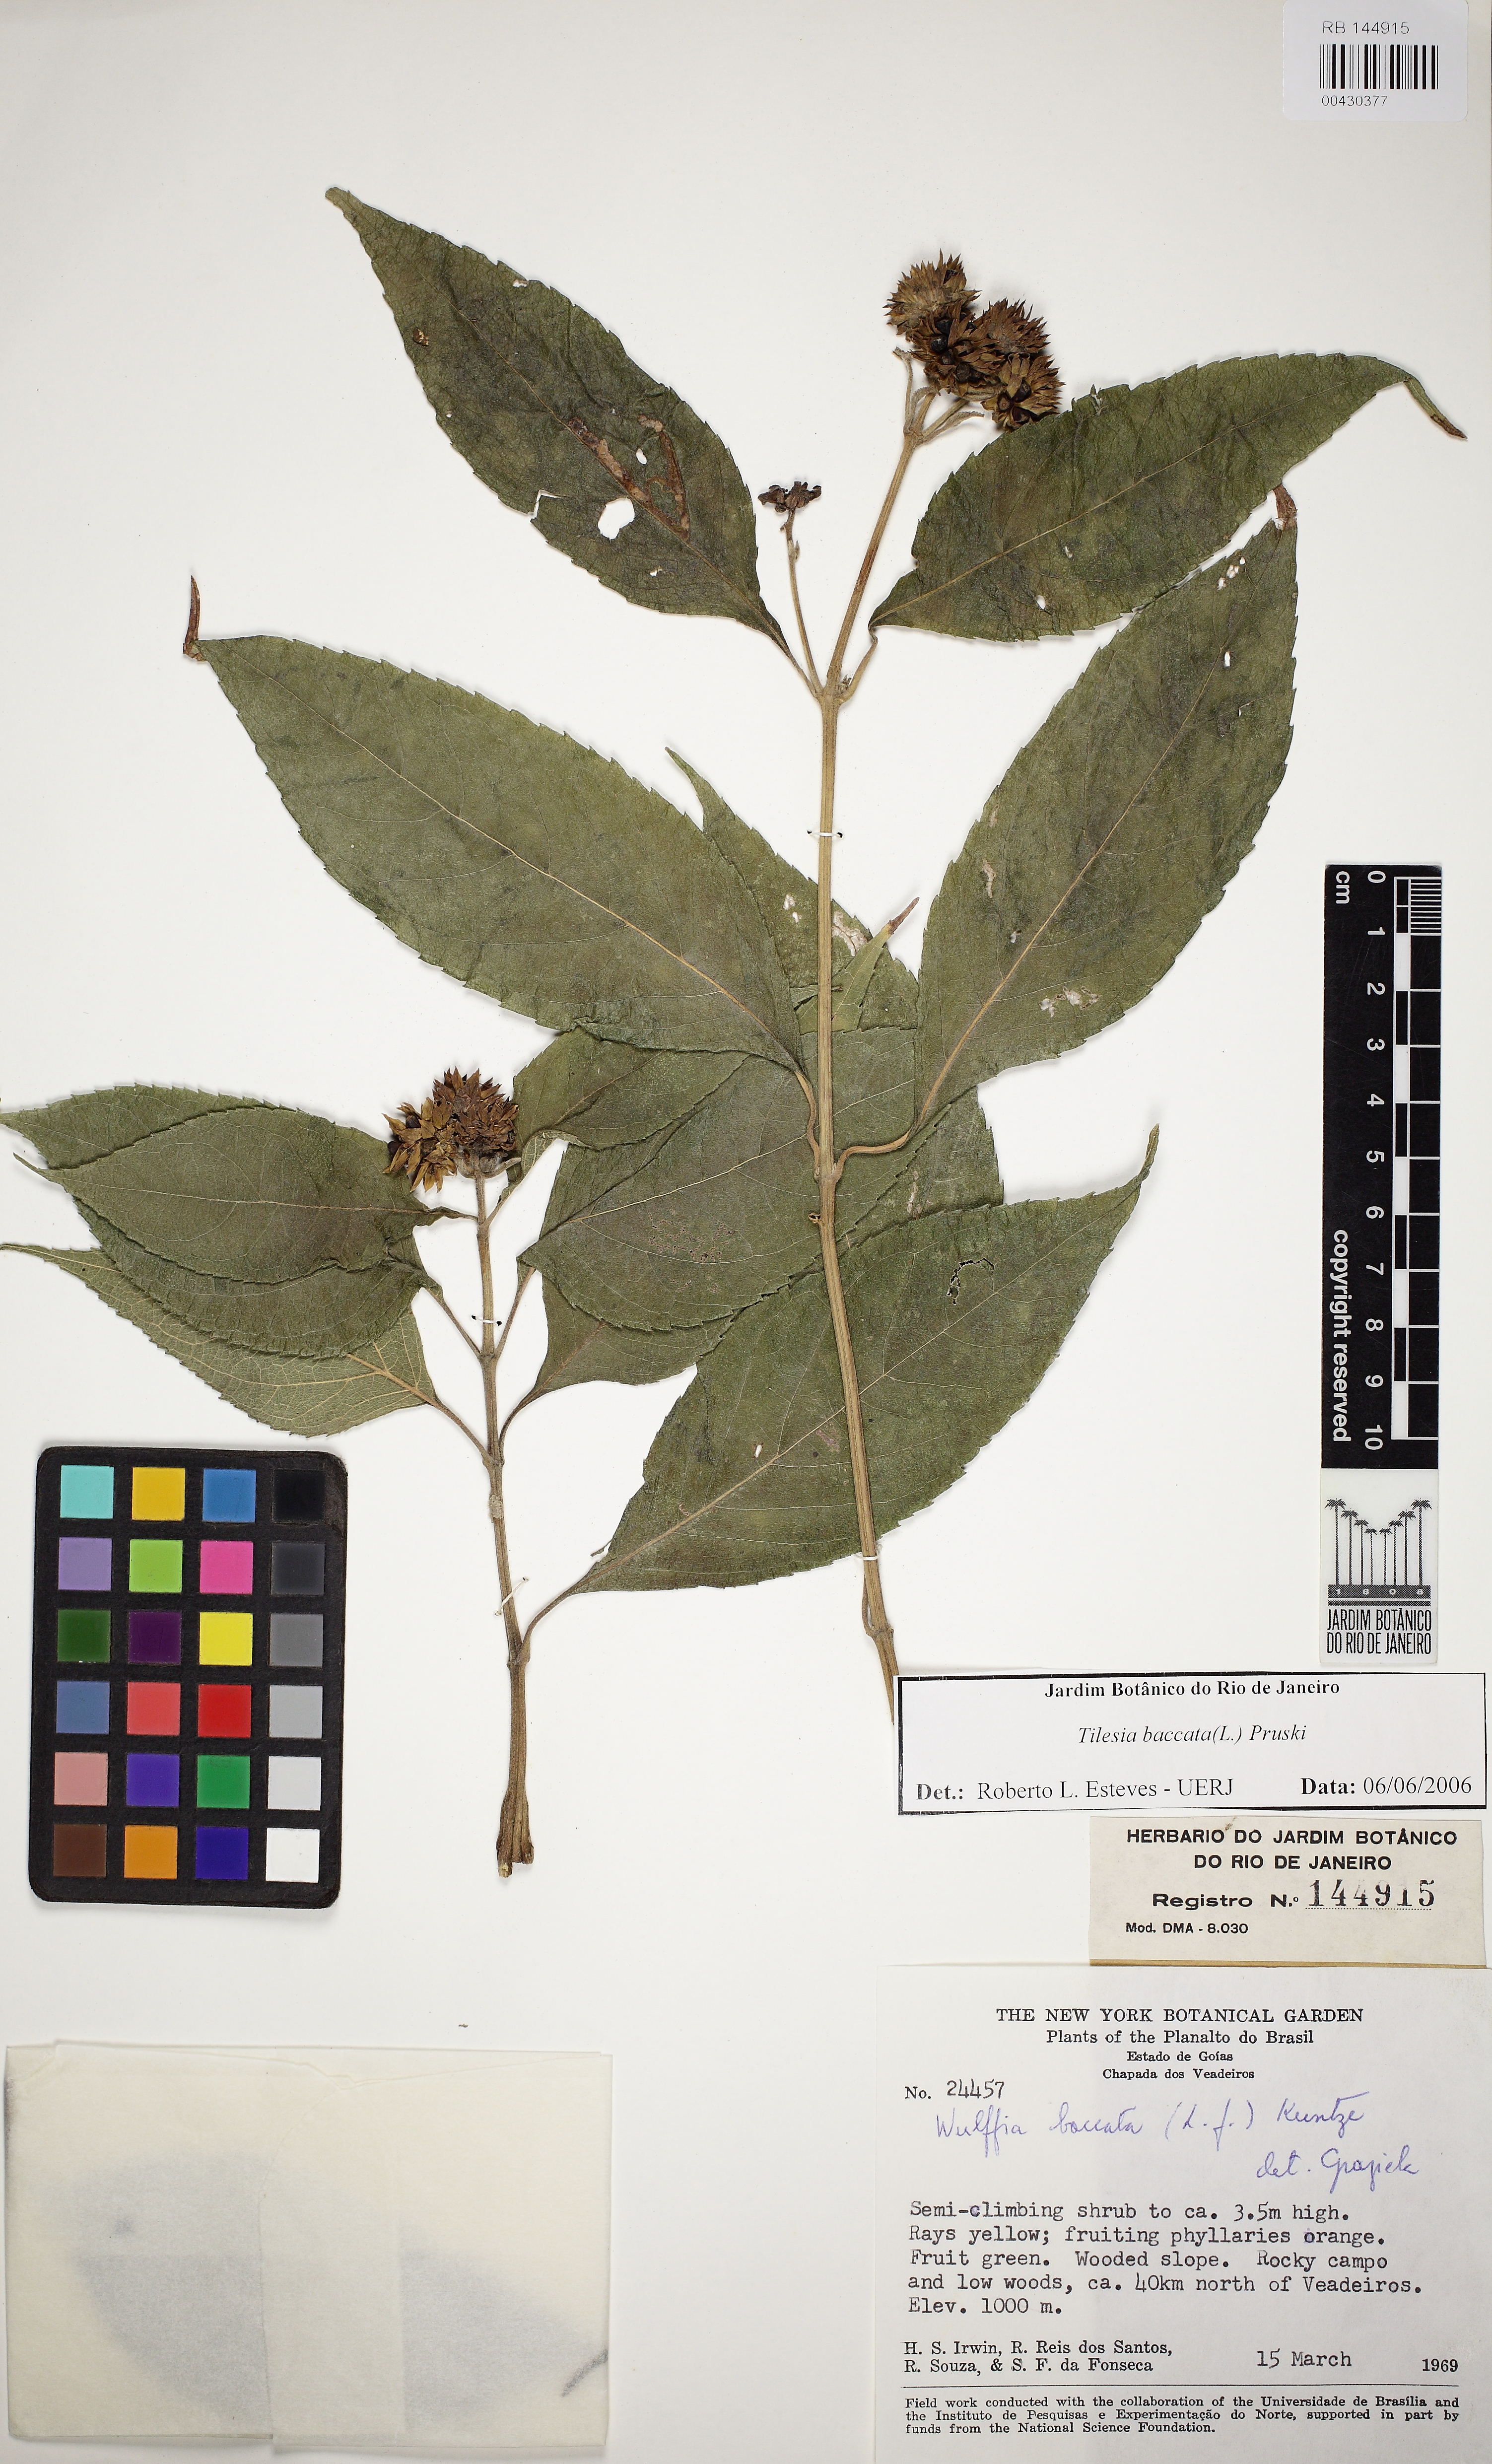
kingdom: Plantae
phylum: Tracheophyta
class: Magnoliopsida
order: Asterales
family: Asteraceae
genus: Tilesia
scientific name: Tilesia baccata
